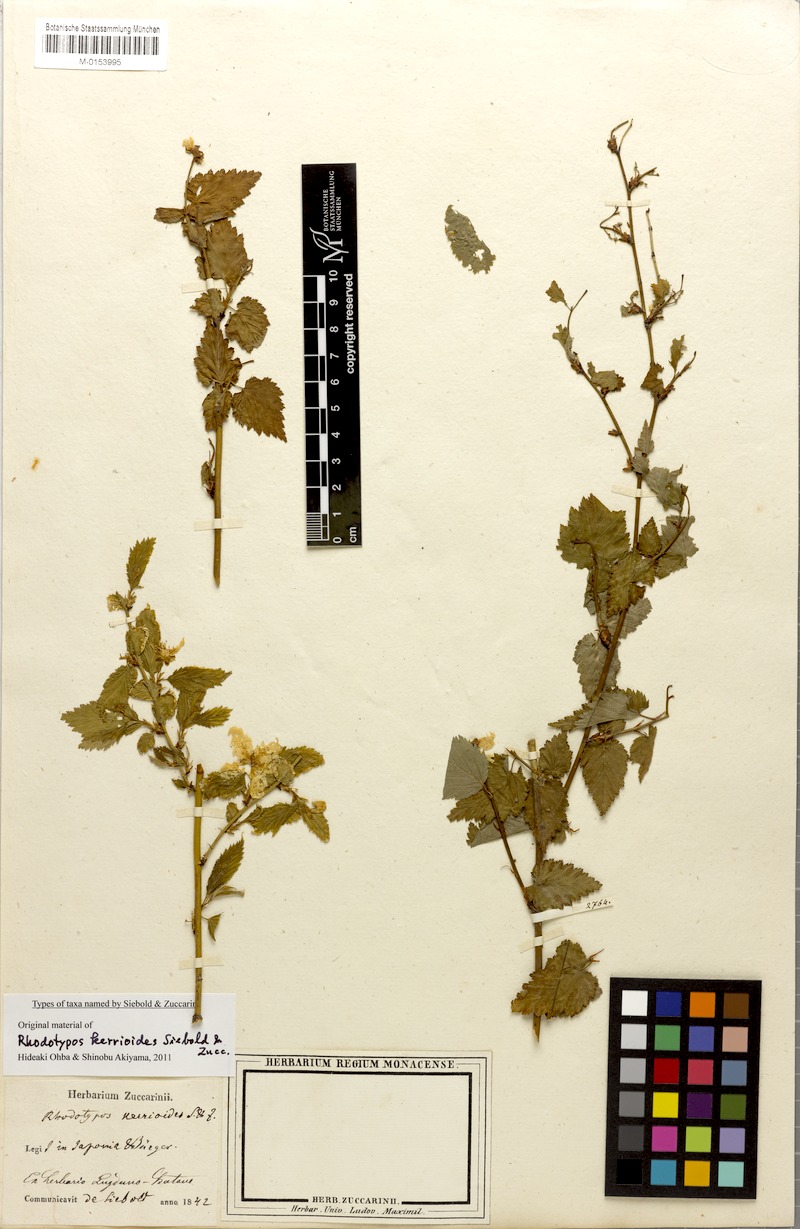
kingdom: Plantae
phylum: Tracheophyta
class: Magnoliopsida
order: Rosales
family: Rosaceae
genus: Rhodotypos
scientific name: Rhodotypos scandens
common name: Jetbead
